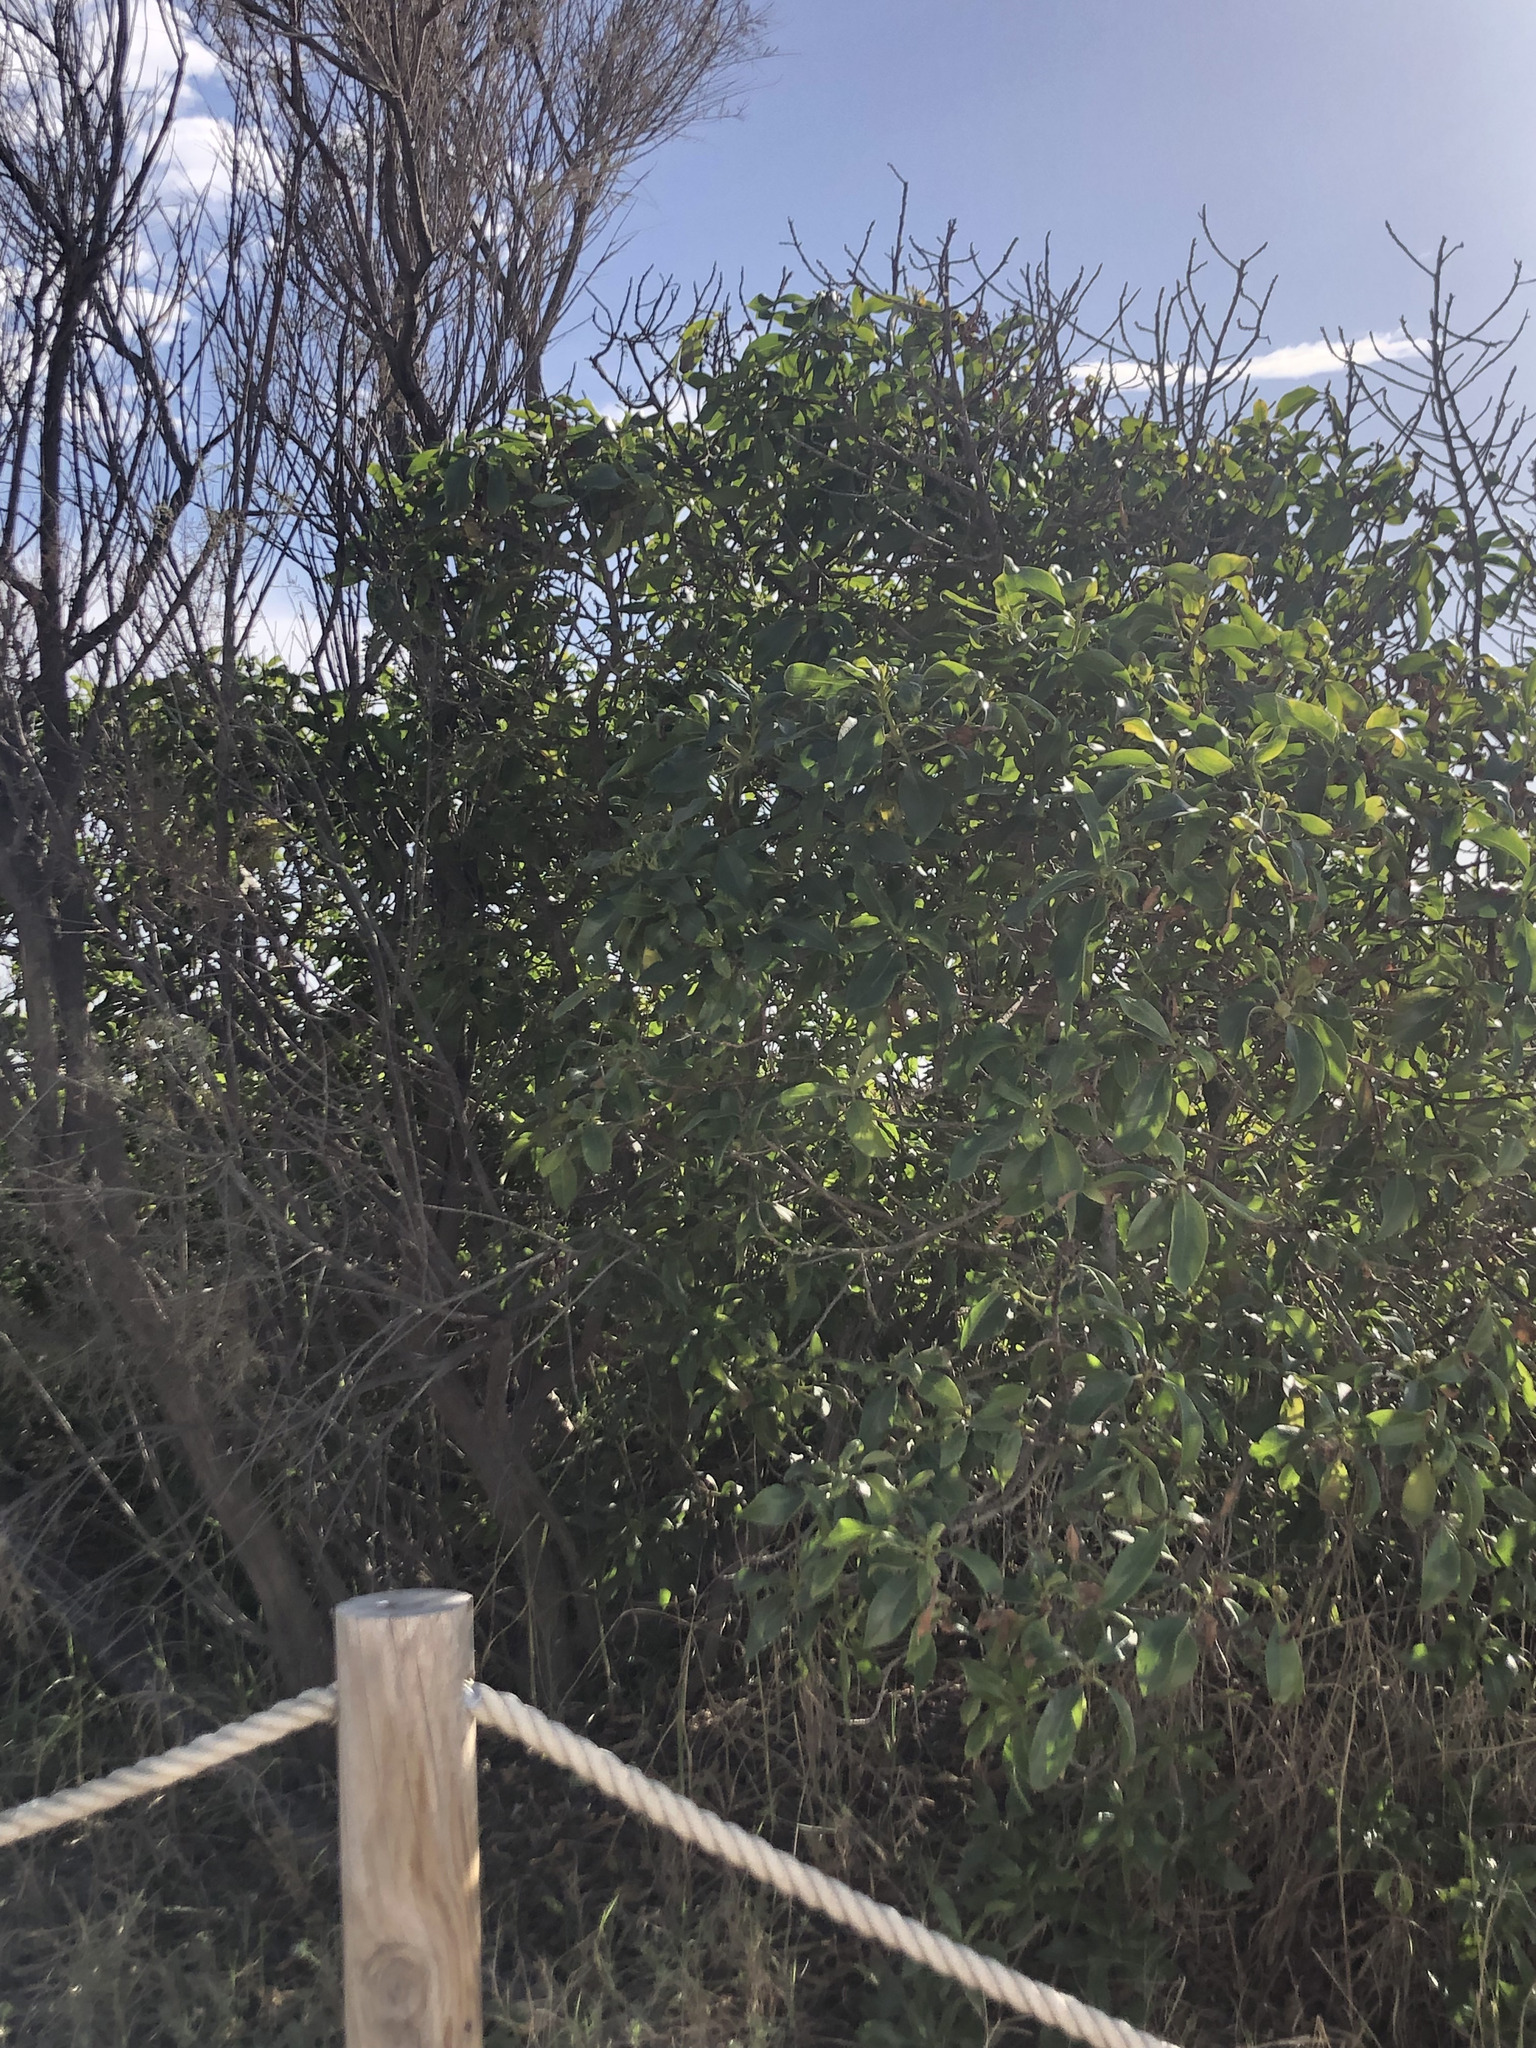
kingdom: Plantae
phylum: Tracheophyta
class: Magnoliopsida
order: Lamiales
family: Scrophulariaceae
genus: Myoporum
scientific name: Myoporum laetum
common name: Ngaio tree
